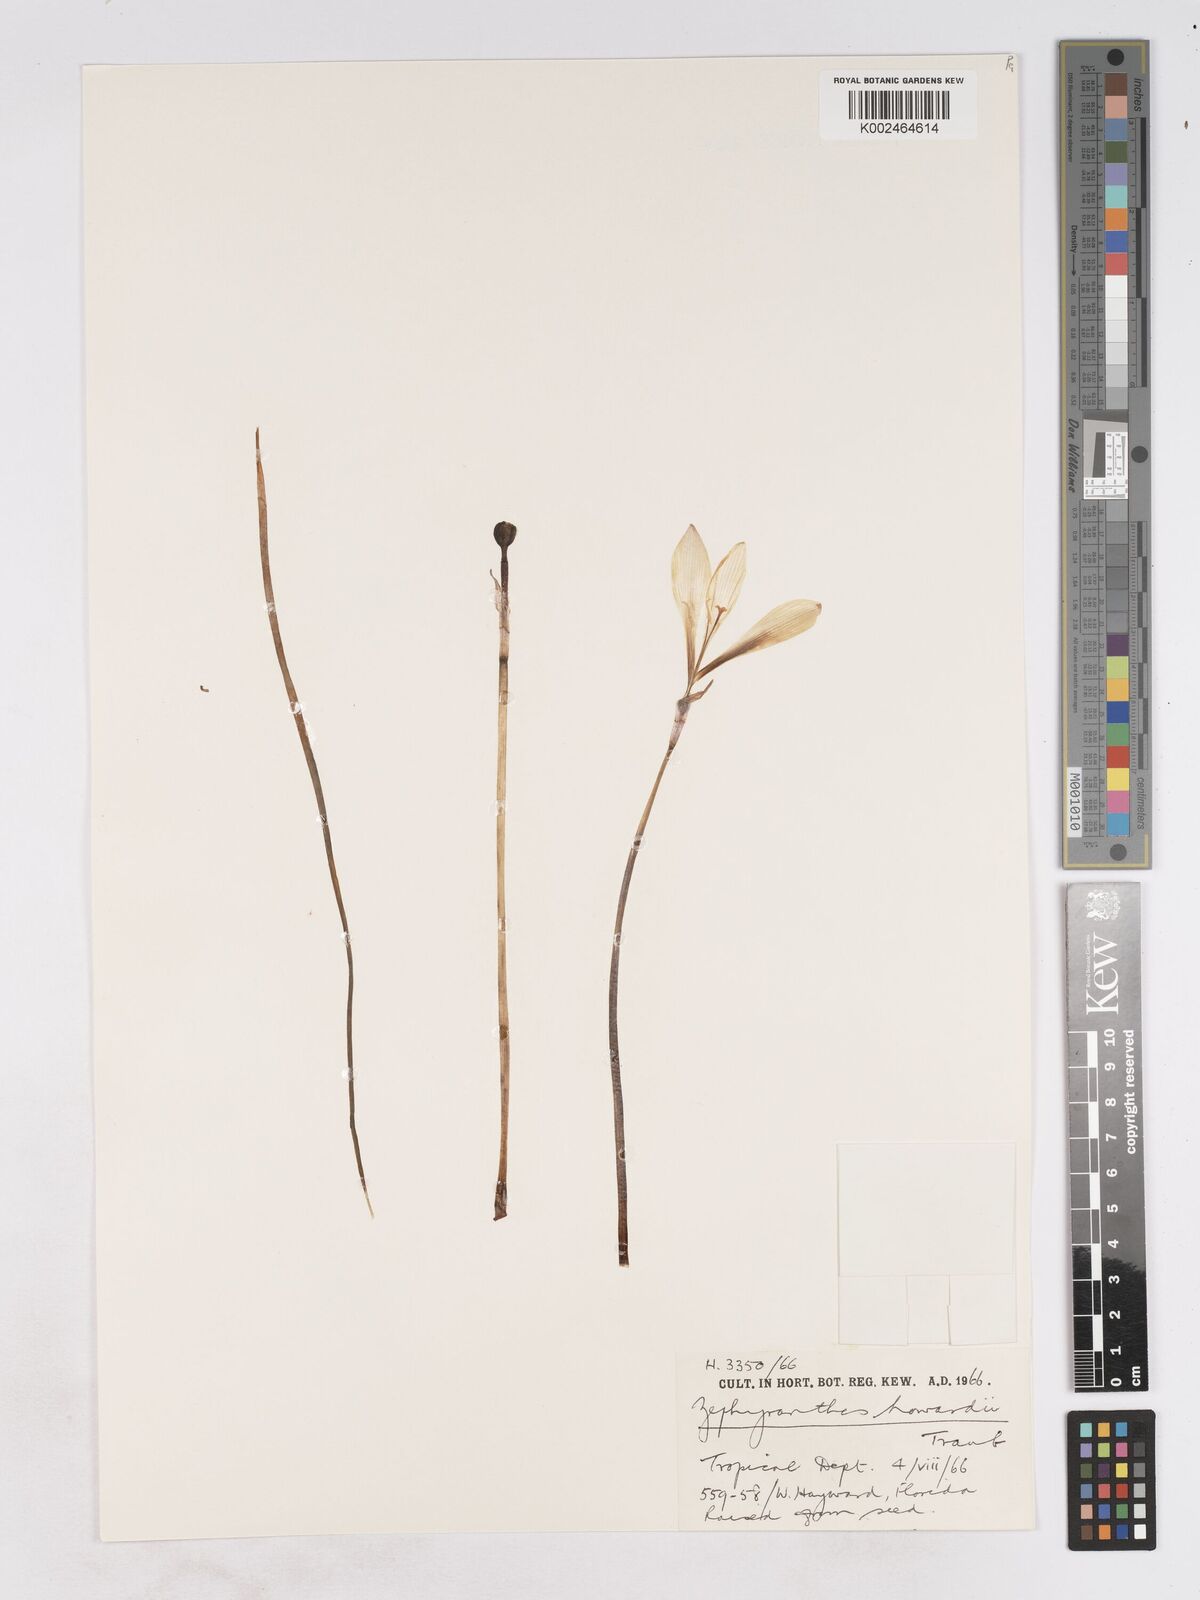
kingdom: Plantae
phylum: Tracheophyta
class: Liliopsida
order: Asparagales
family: Amaryllidaceae
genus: Zephyranthes
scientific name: Zephyranthes howardii
